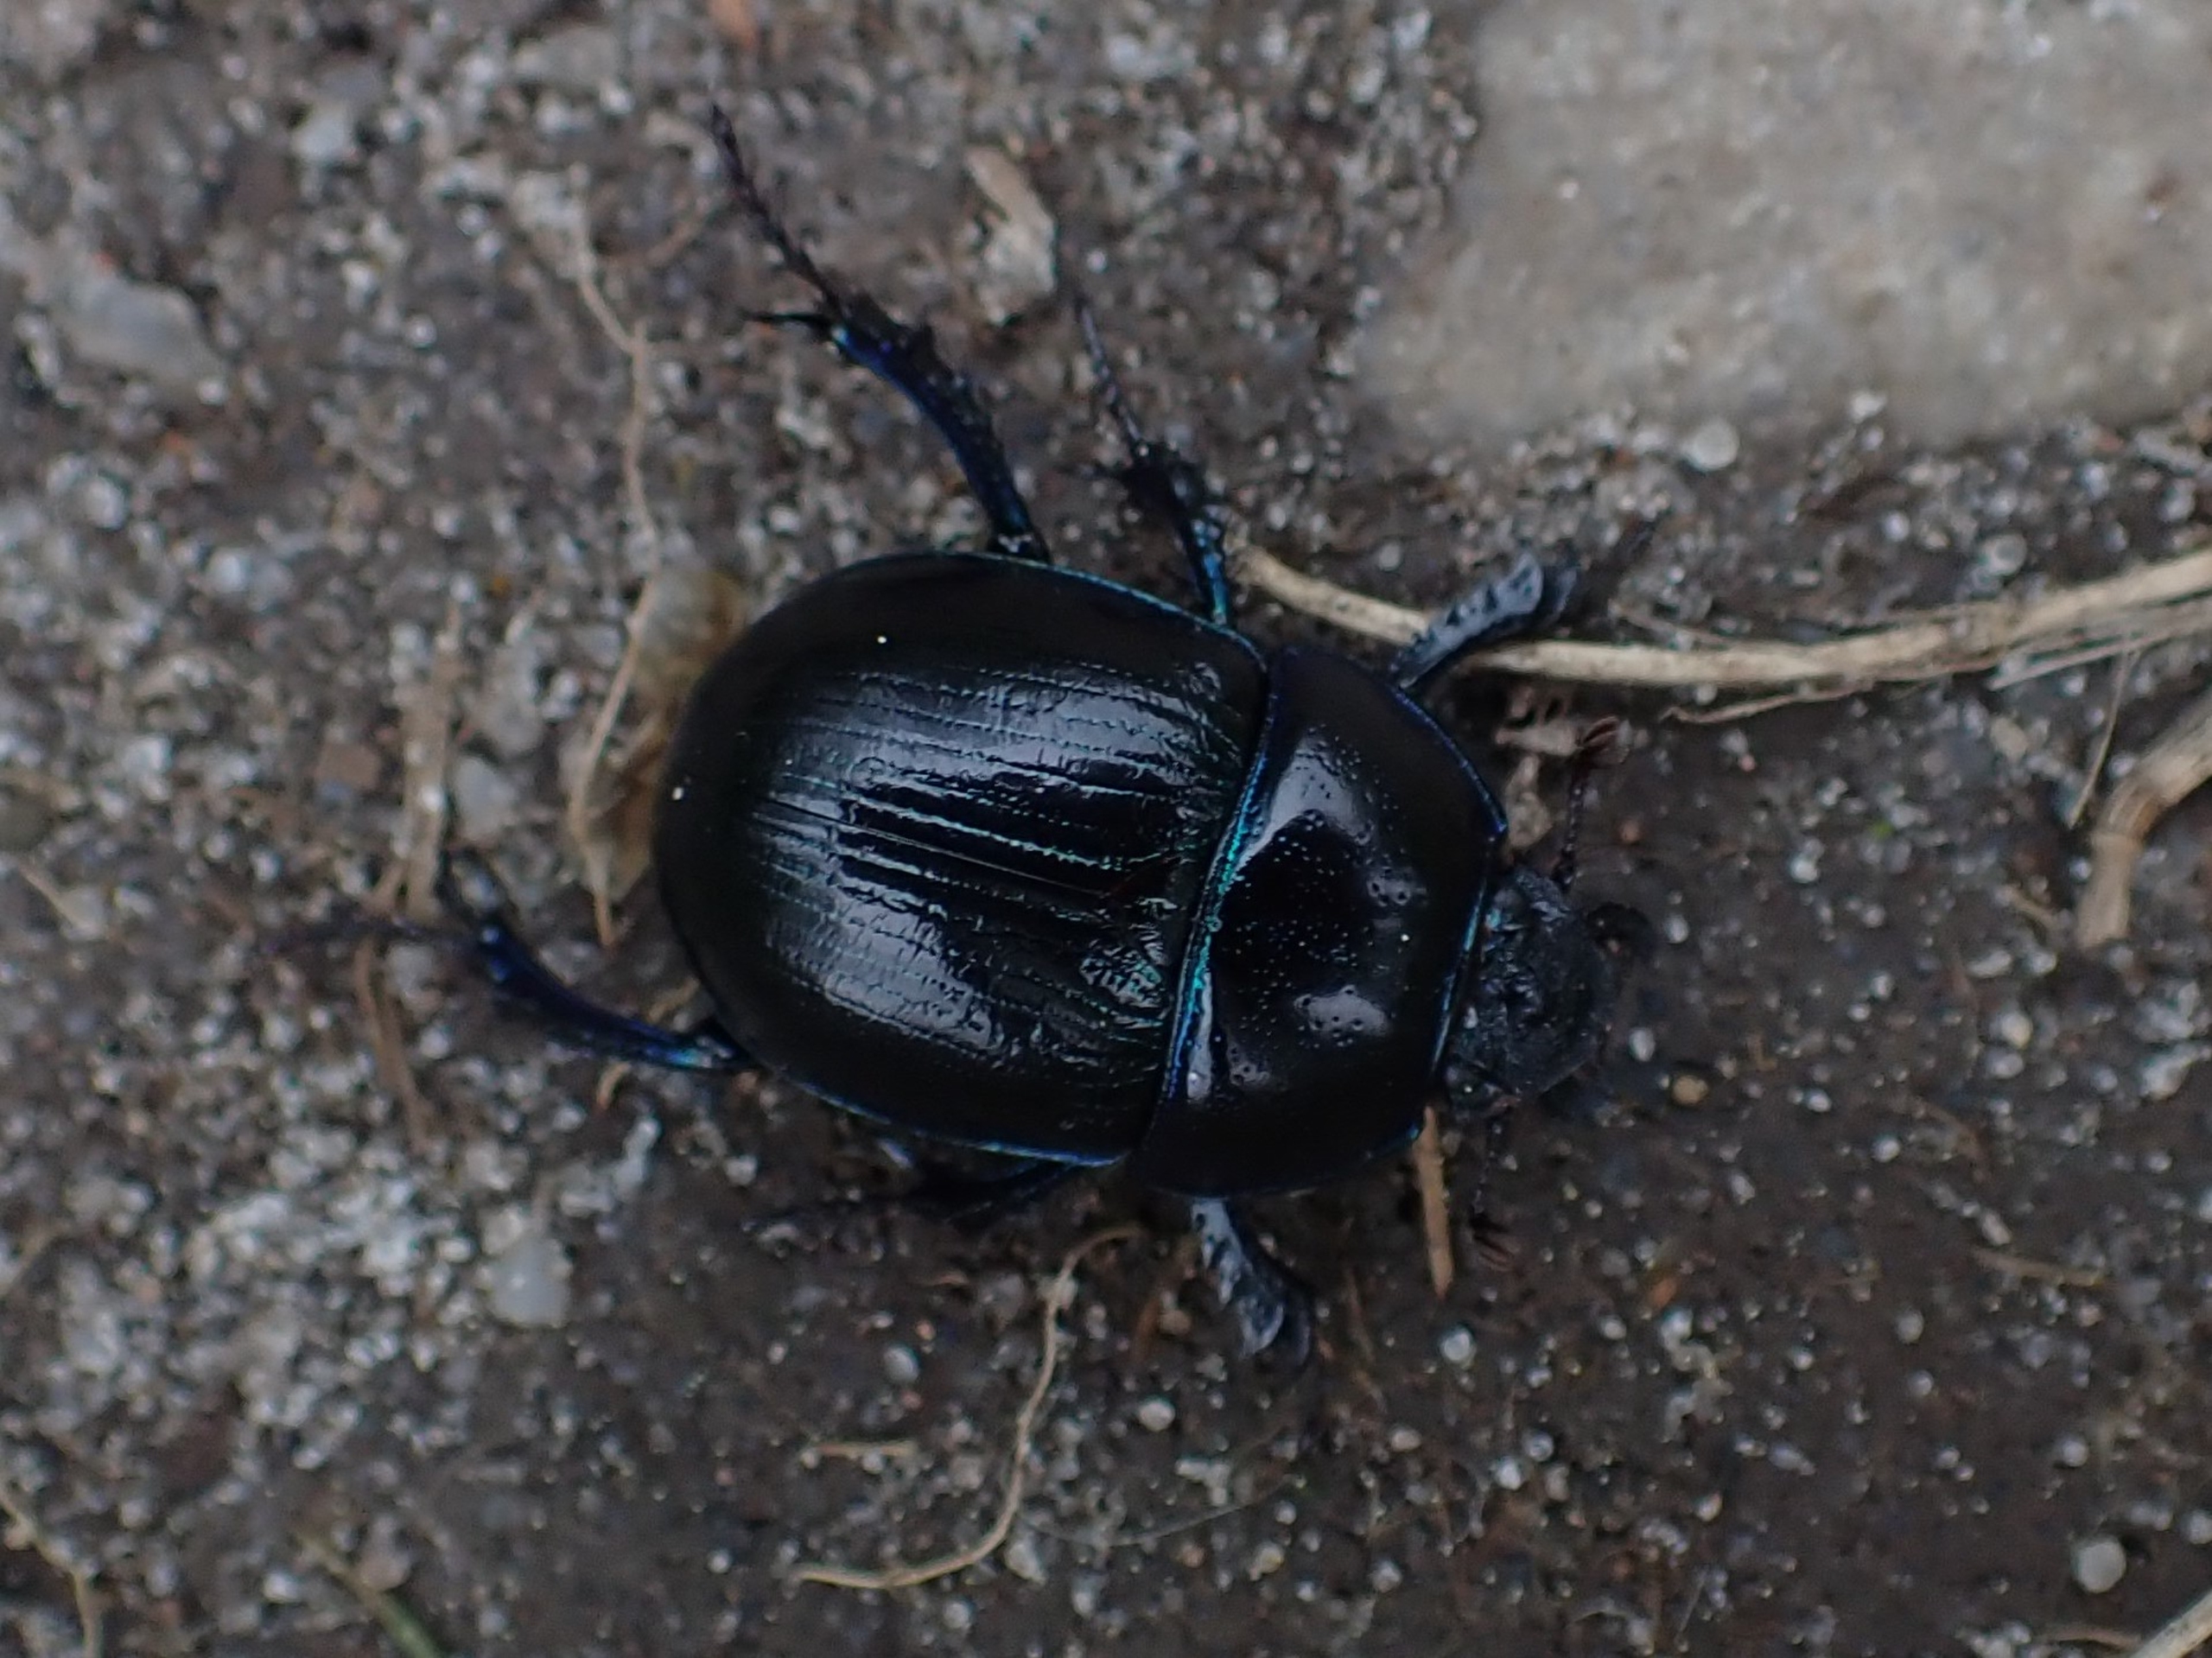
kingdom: Animalia
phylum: Arthropoda
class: Insecta
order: Coleoptera
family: Geotrupidae
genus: Anoplotrupes
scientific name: Anoplotrupes stercorosus
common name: Skovskarnbasse
